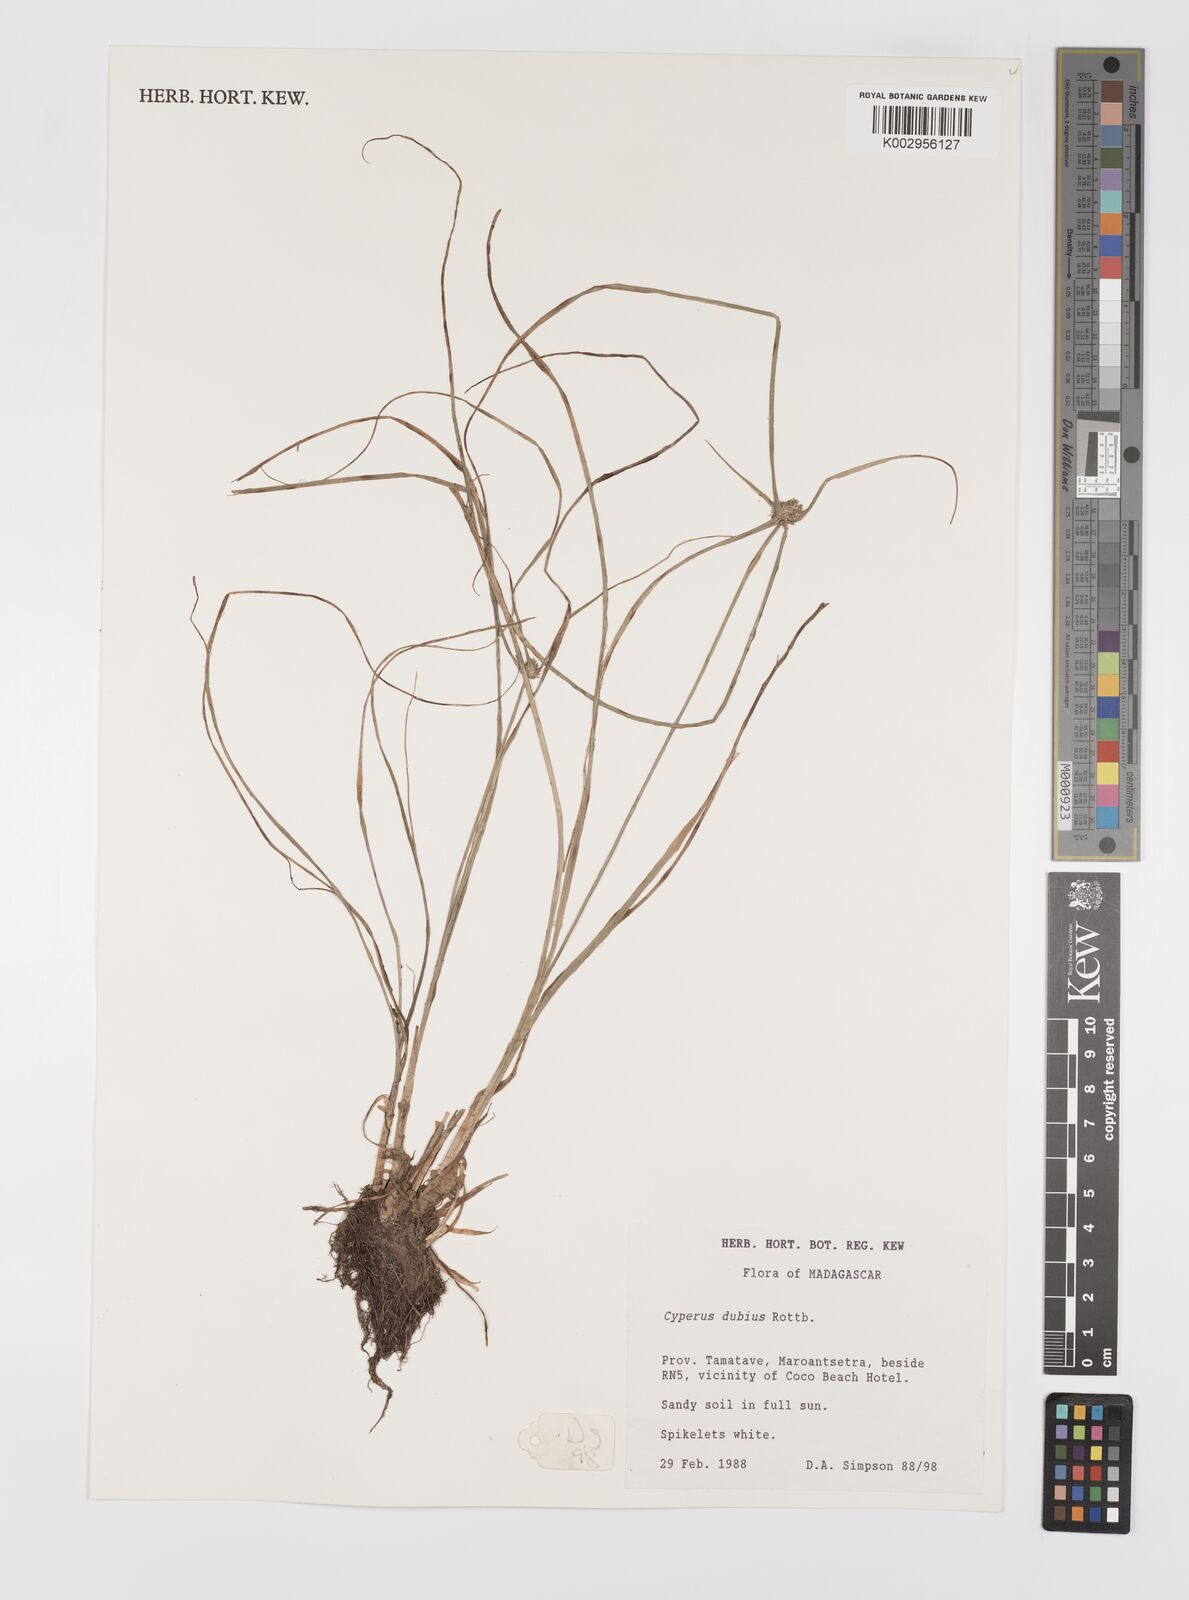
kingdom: Plantae
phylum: Tracheophyta
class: Liliopsida
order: Poales
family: Cyperaceae
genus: Cyperus
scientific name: Cyperus dubius
